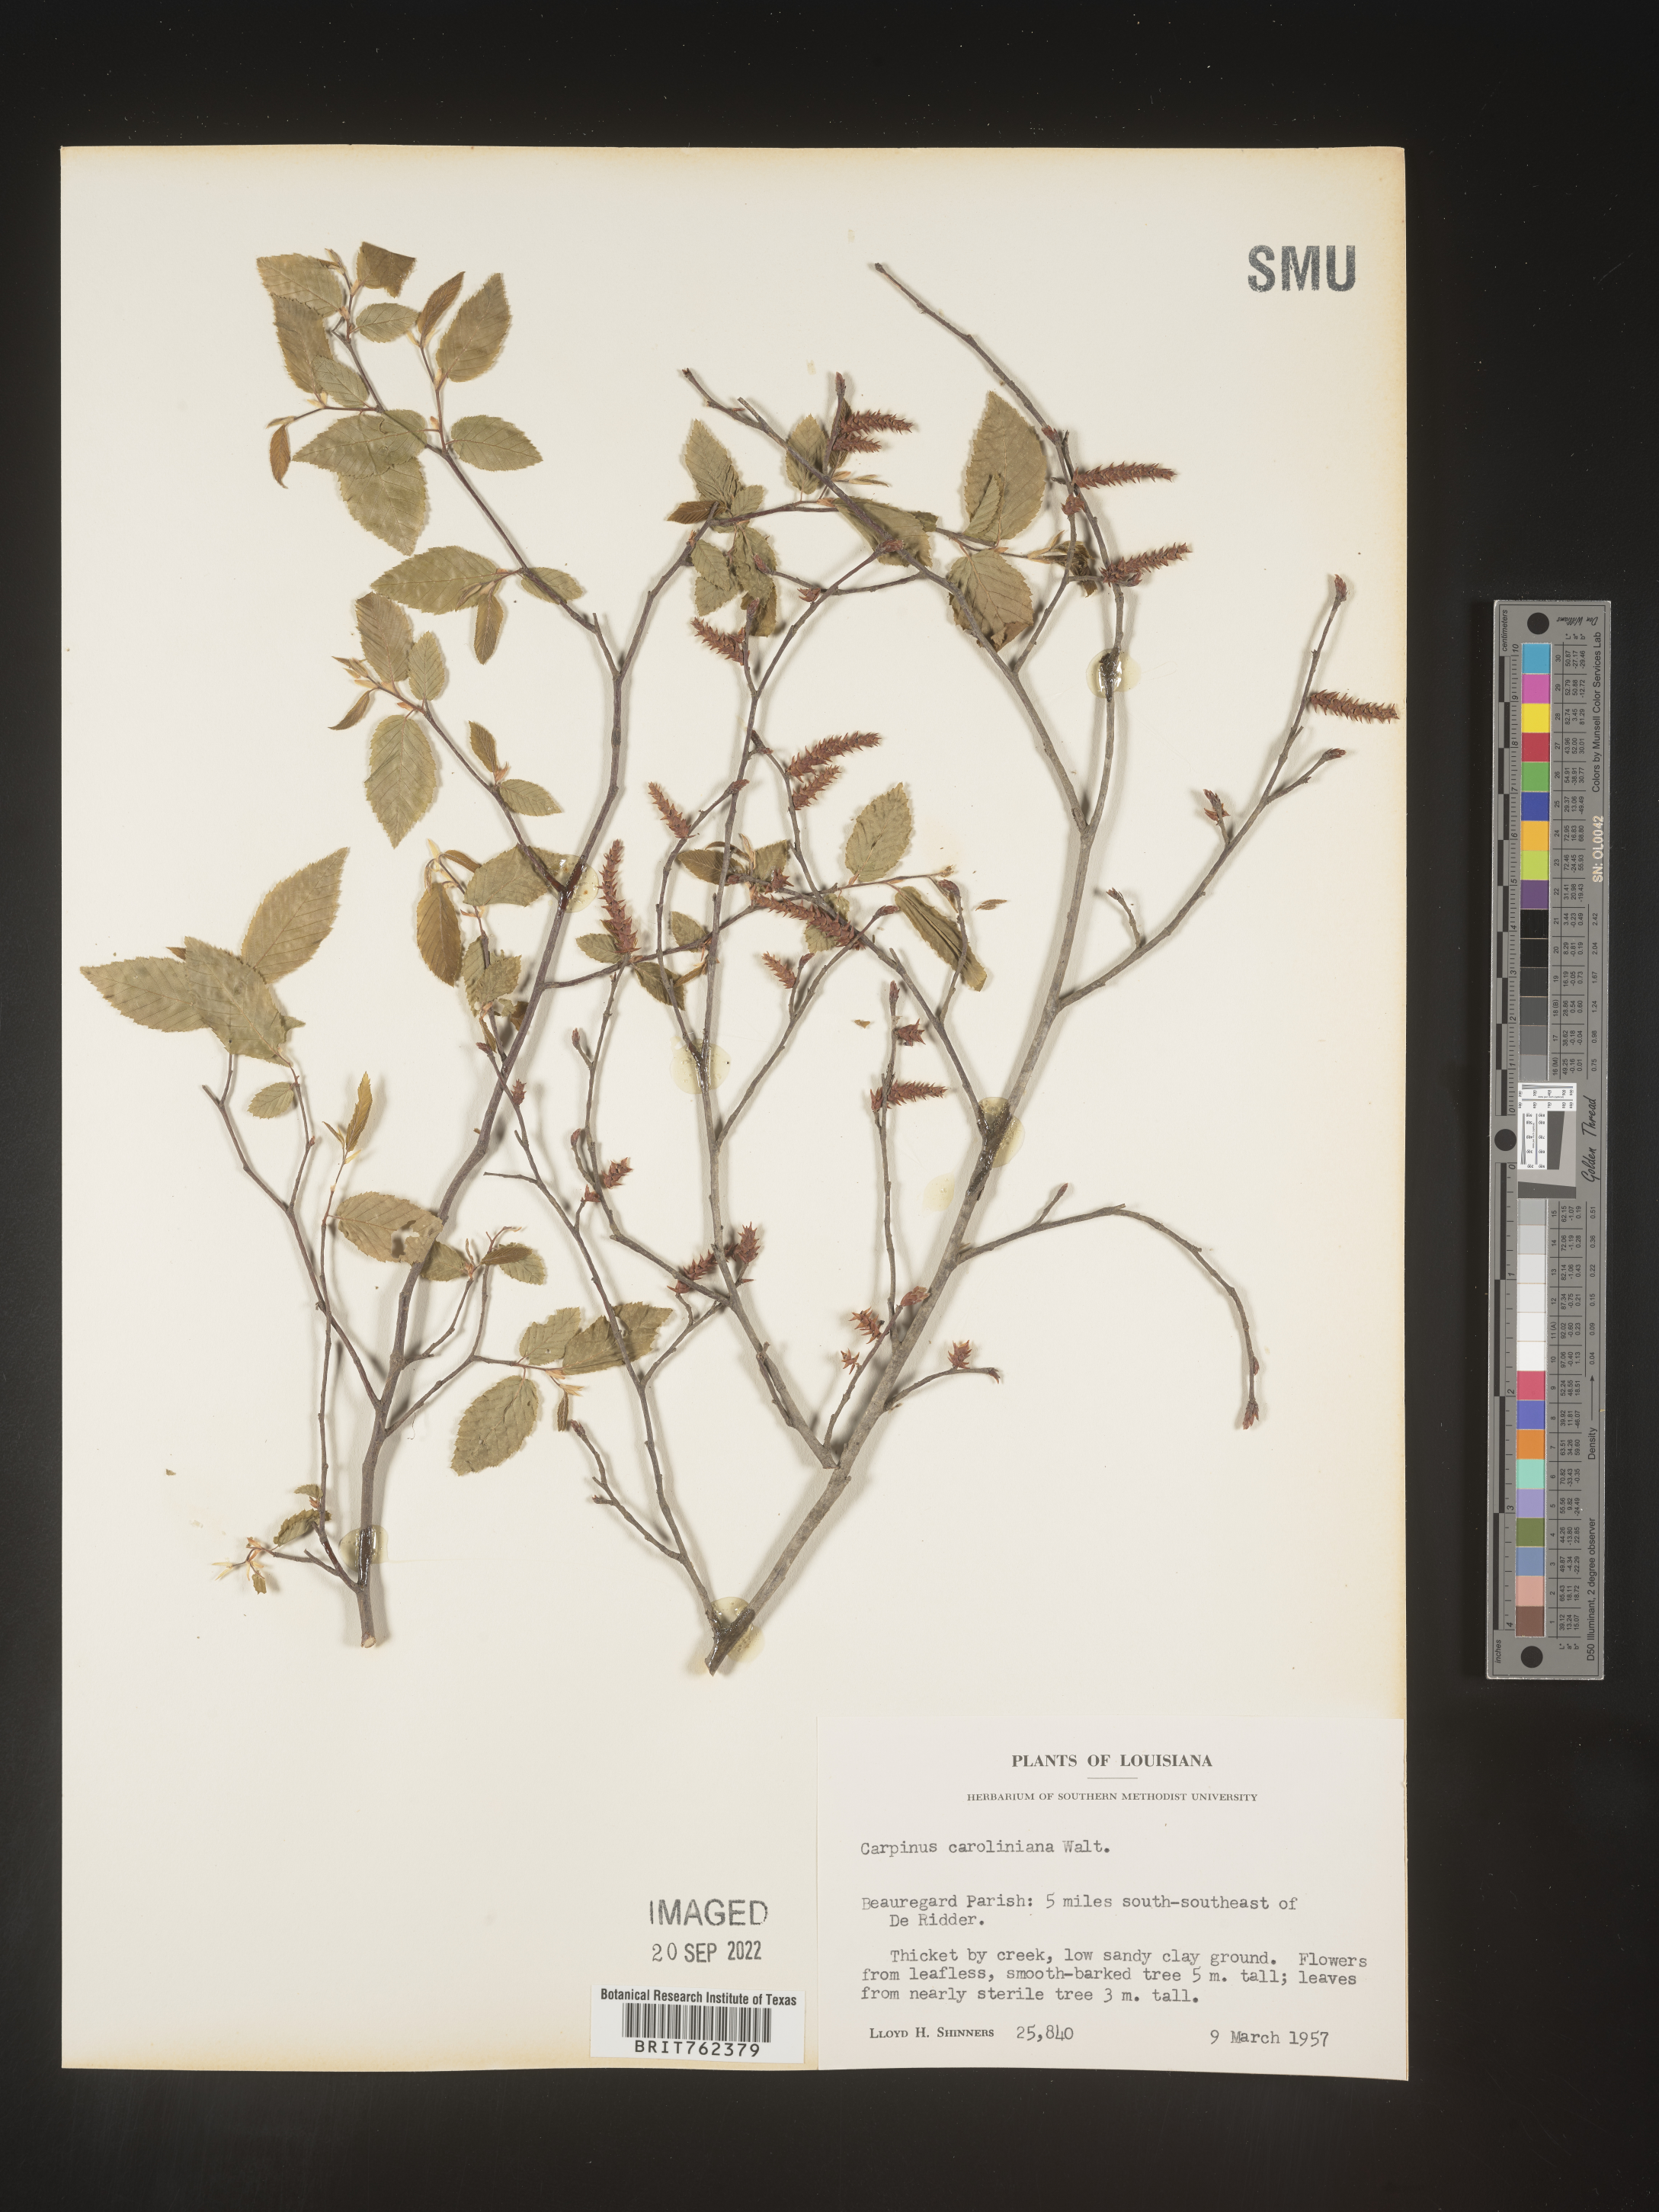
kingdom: Plantae
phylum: Tracheophyta
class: Magnoliopsida
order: Fagales
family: Betulaceae
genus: Carpinus
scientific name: Carpinus caroliniana
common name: American hornbeam
